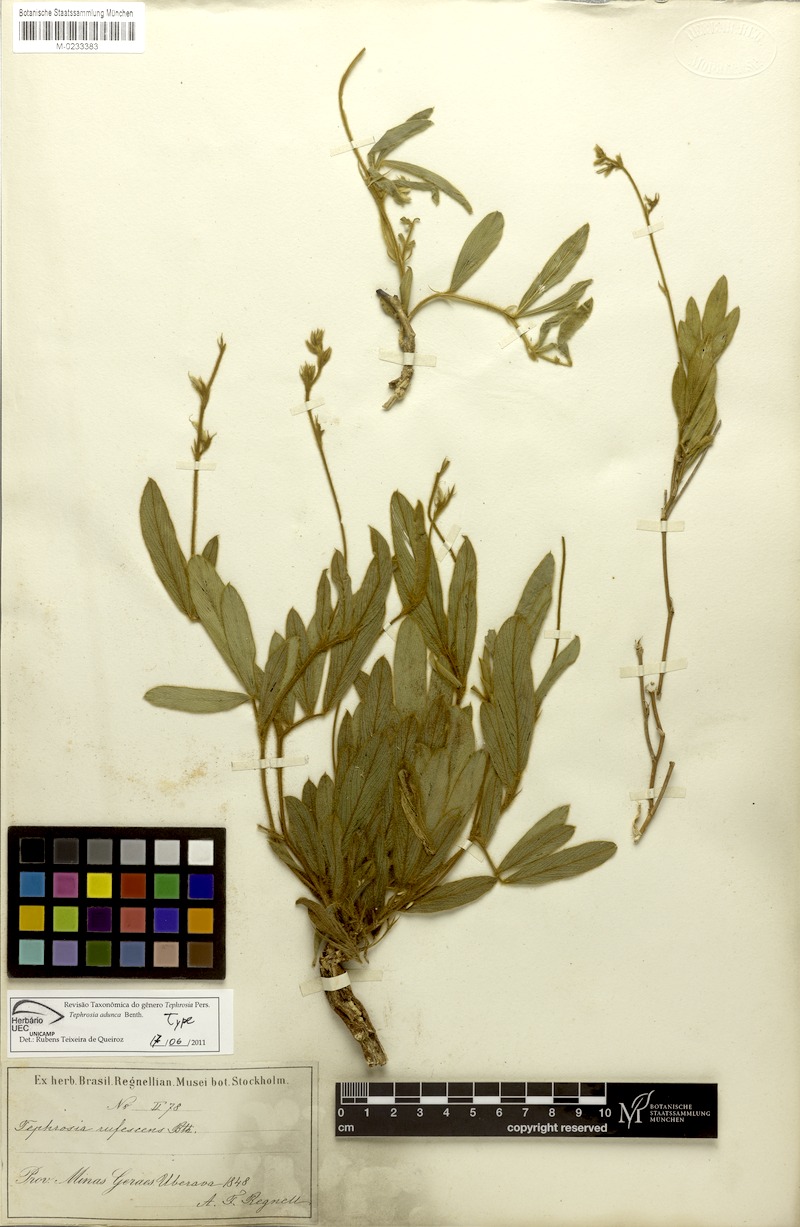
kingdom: Plantae
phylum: Tracheophyta
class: Magnoliopsida
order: Fabales
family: Fabaceae
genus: Tephrosia
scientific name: Tephrosia adunca
